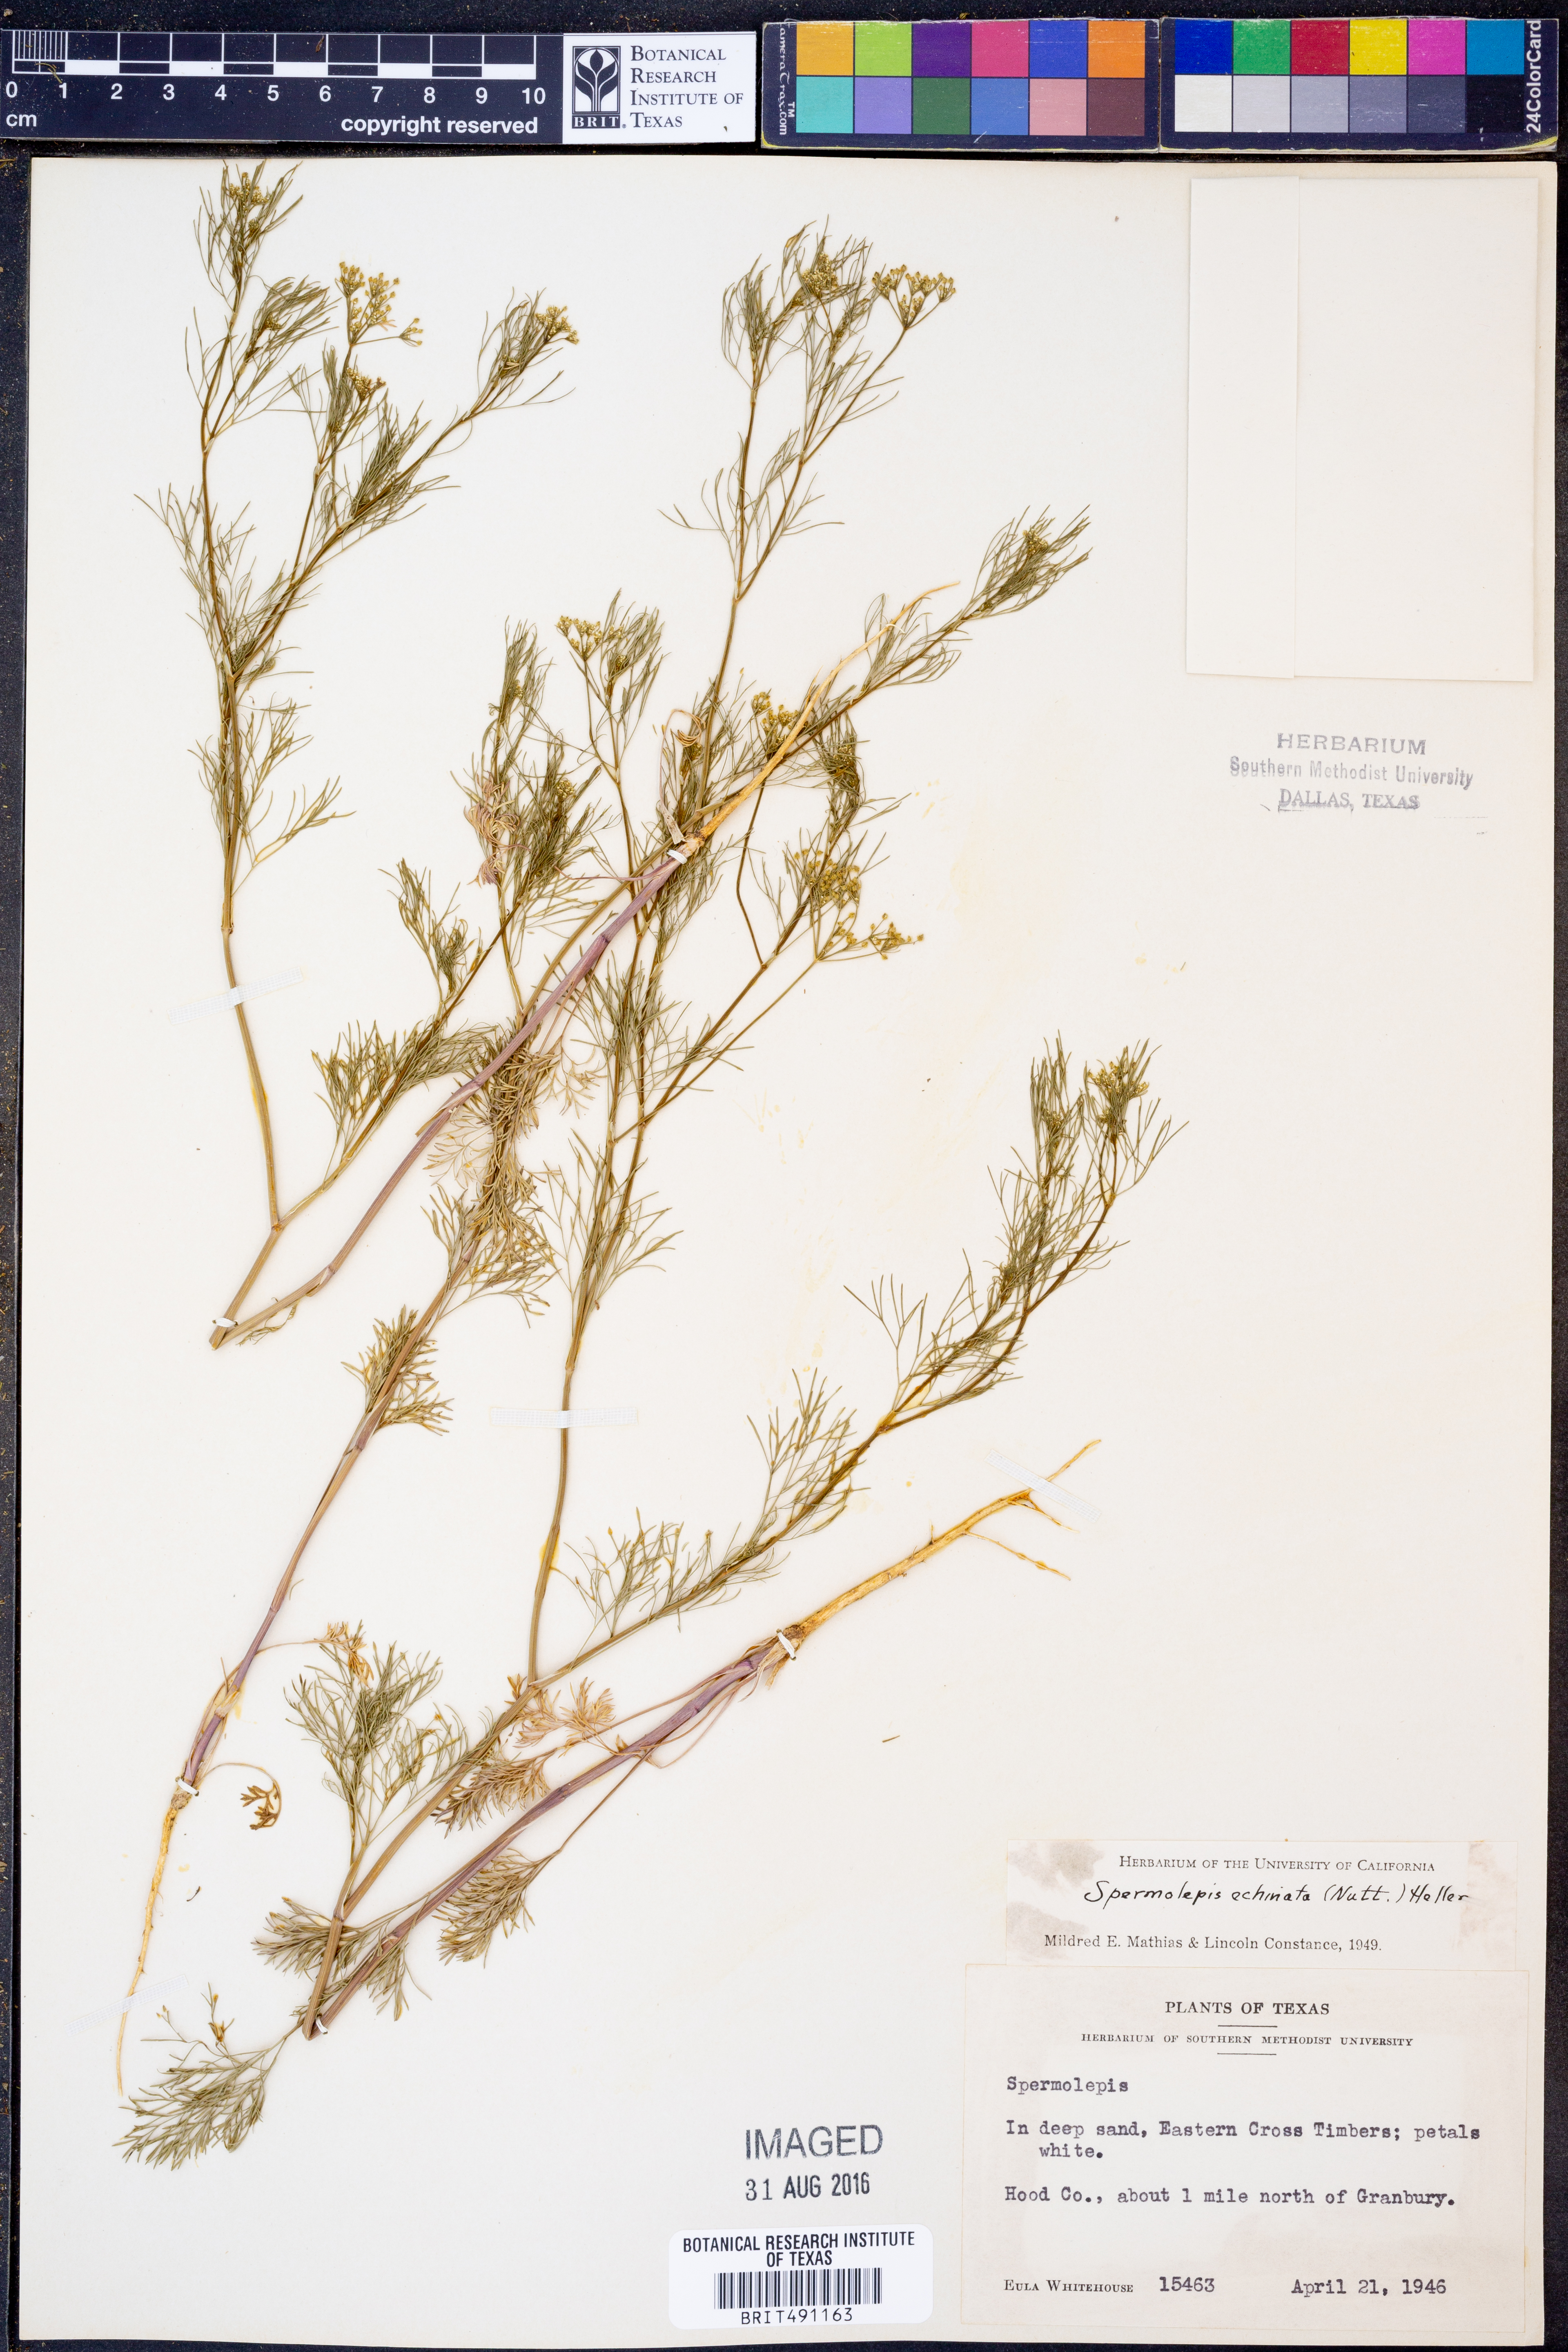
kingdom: Plantae
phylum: Tracheophyta
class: Magnoliopsida
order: Apiales
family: Apiaceae
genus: Spermolepis
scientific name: Spermolepis echinata
